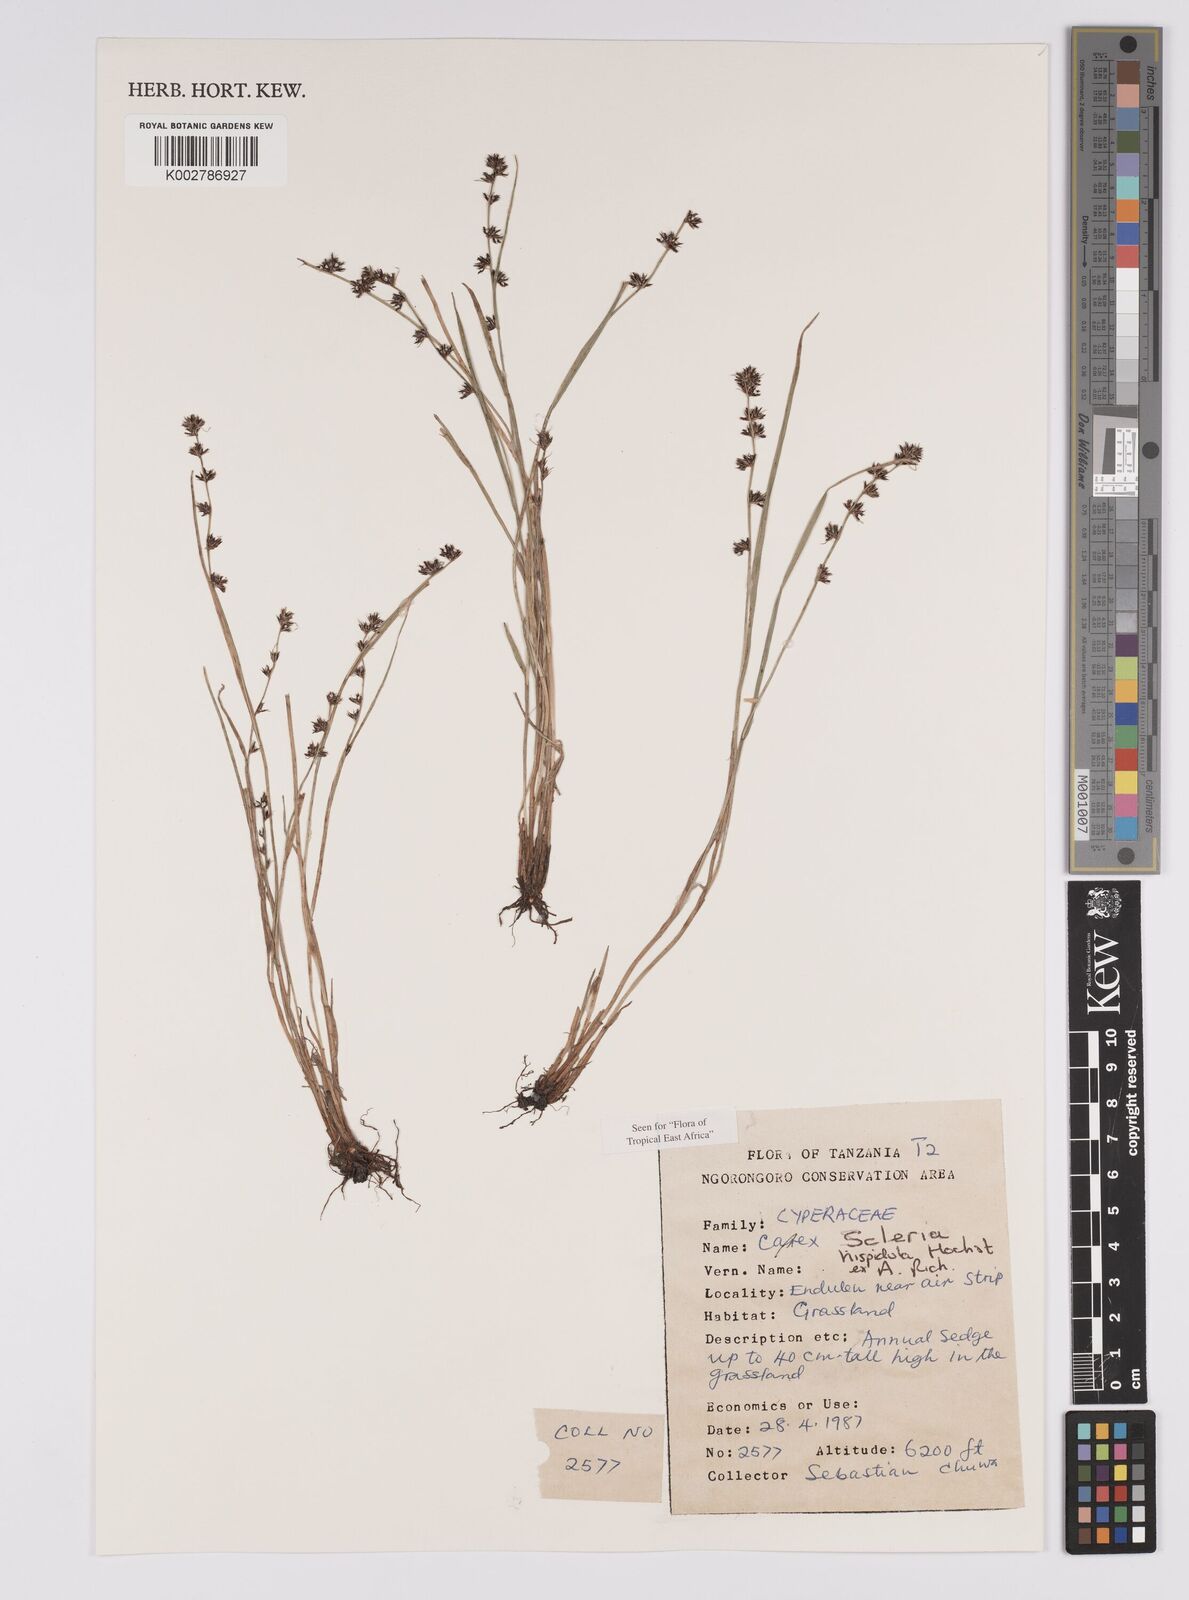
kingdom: Plantae
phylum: Tracheophyta
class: Liliopsida
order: Poales
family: Cyperaceae
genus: Scleria
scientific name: Scleria hispidula
